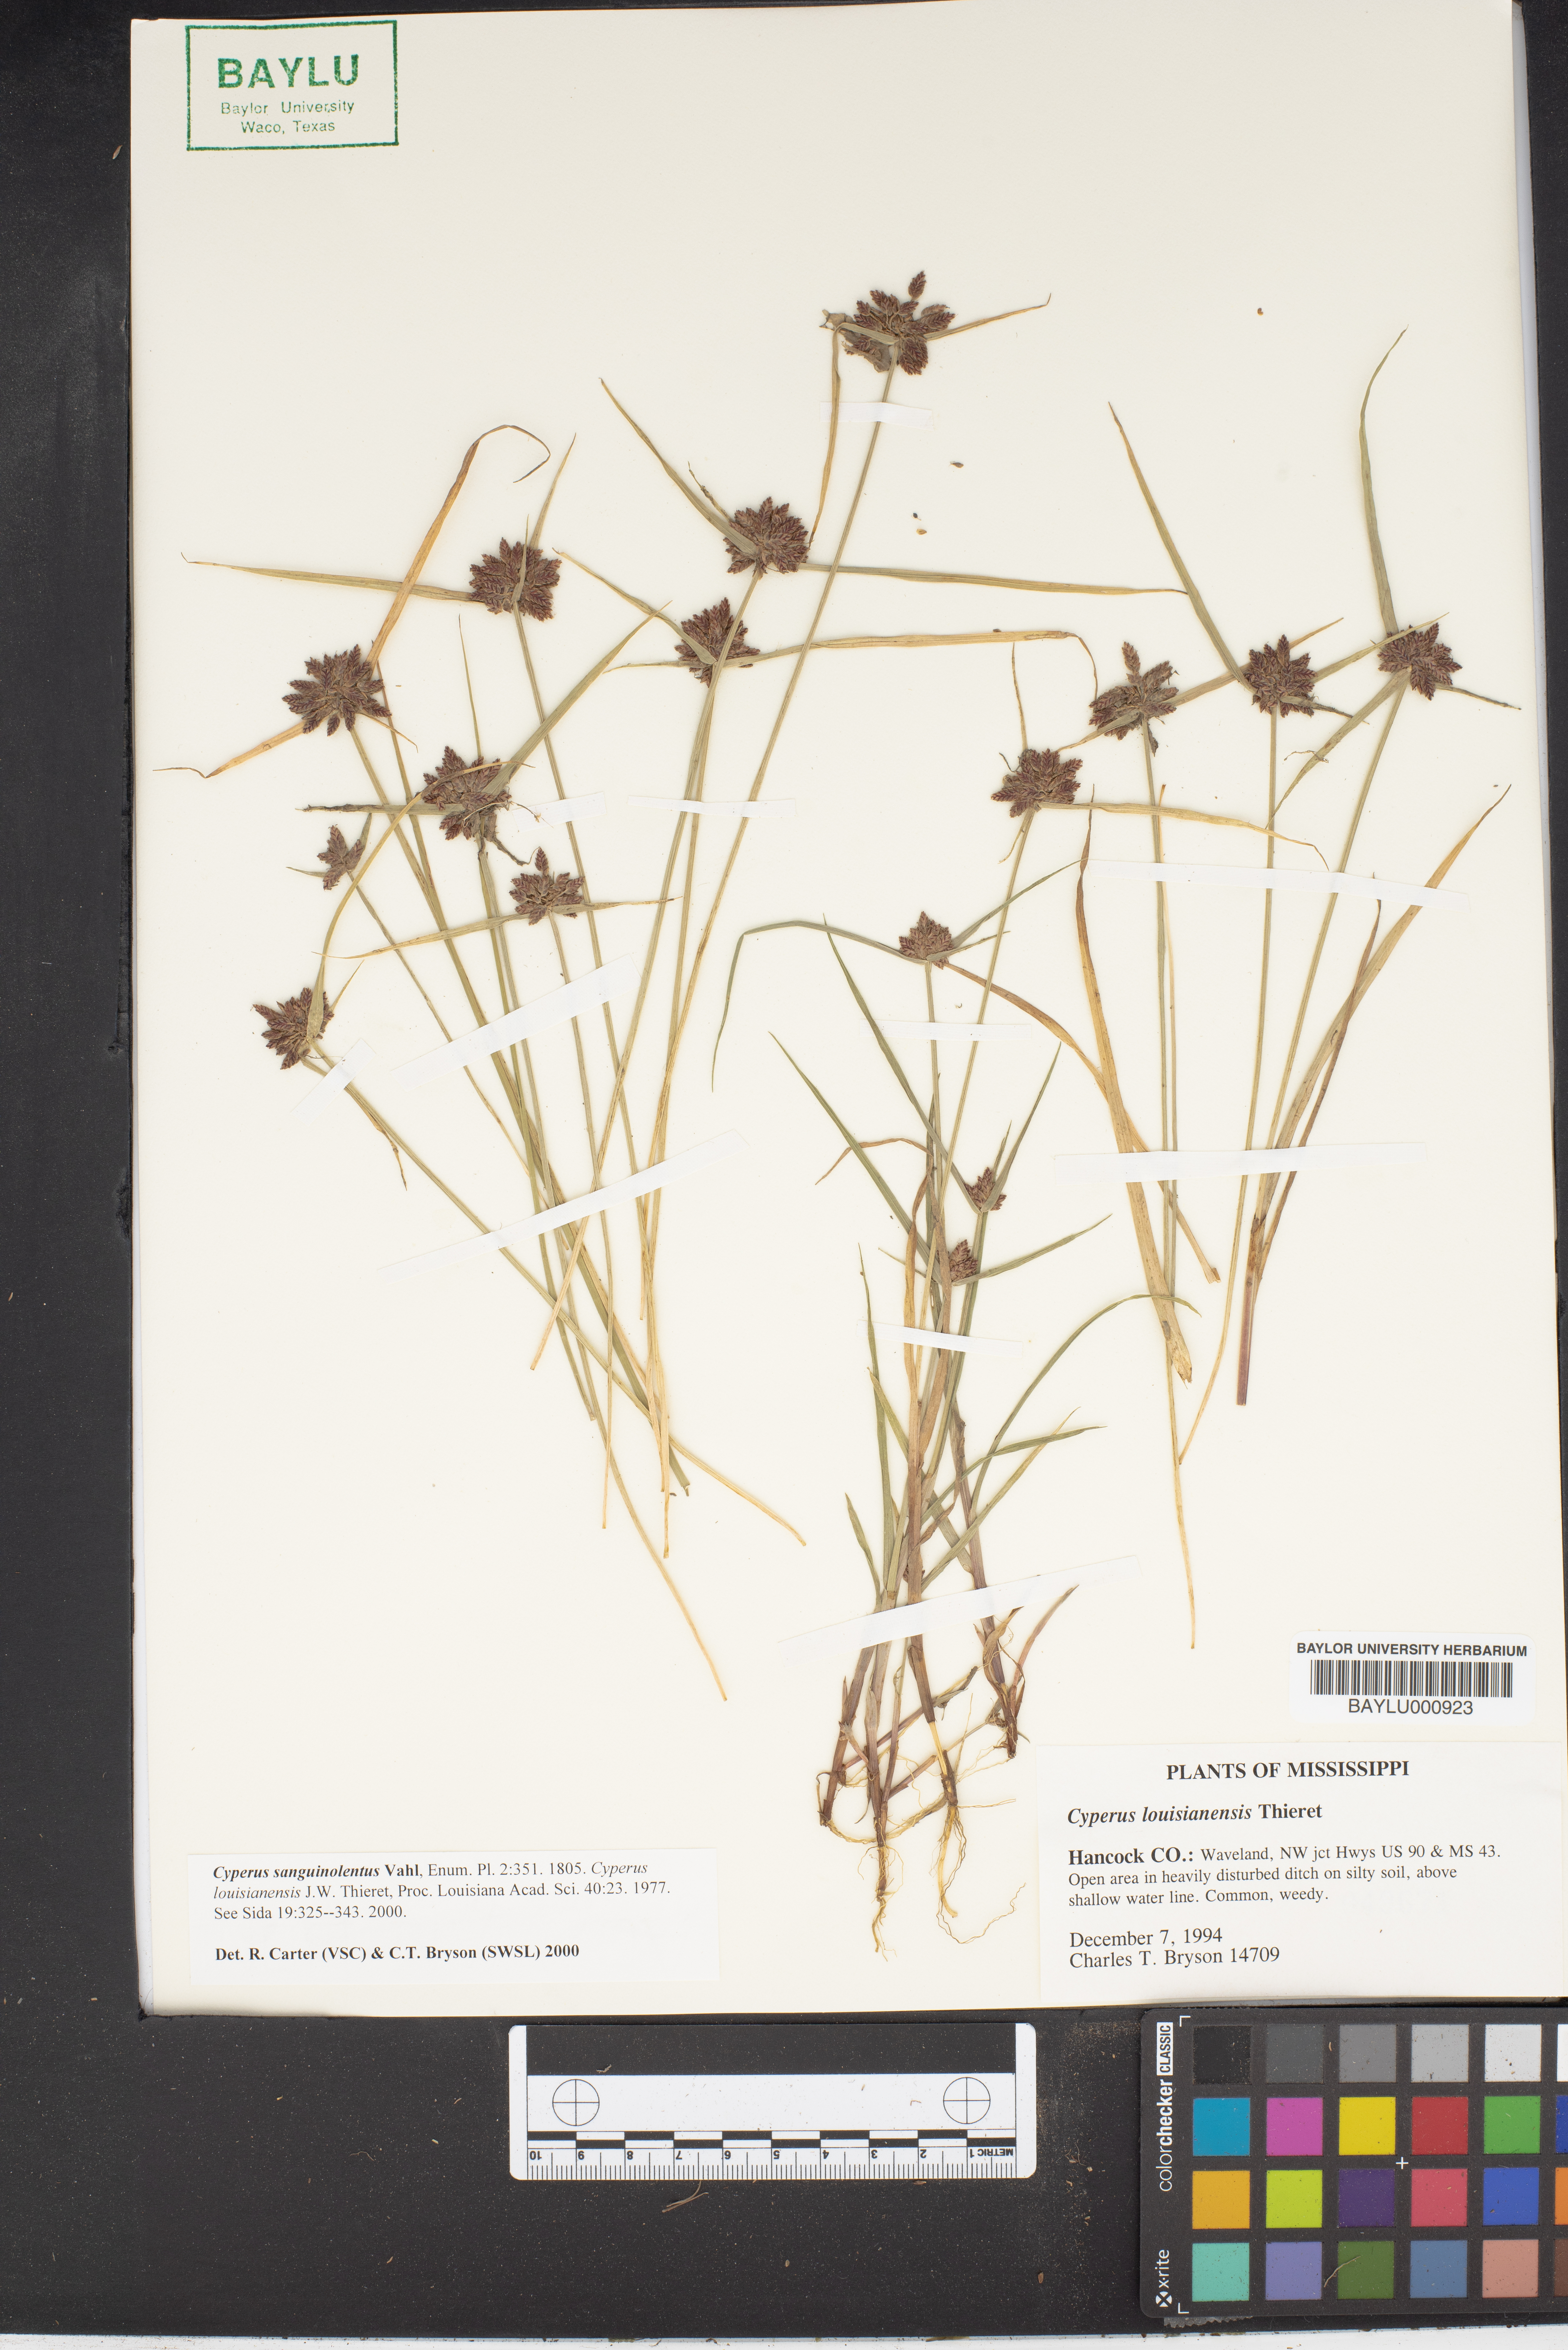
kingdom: Plantae
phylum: Tracheophyta
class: Liliopsida
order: Poales
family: Cyperaceae
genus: Cyperus
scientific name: Cyperus sanguinolentus
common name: Purpleglume flatsedge
